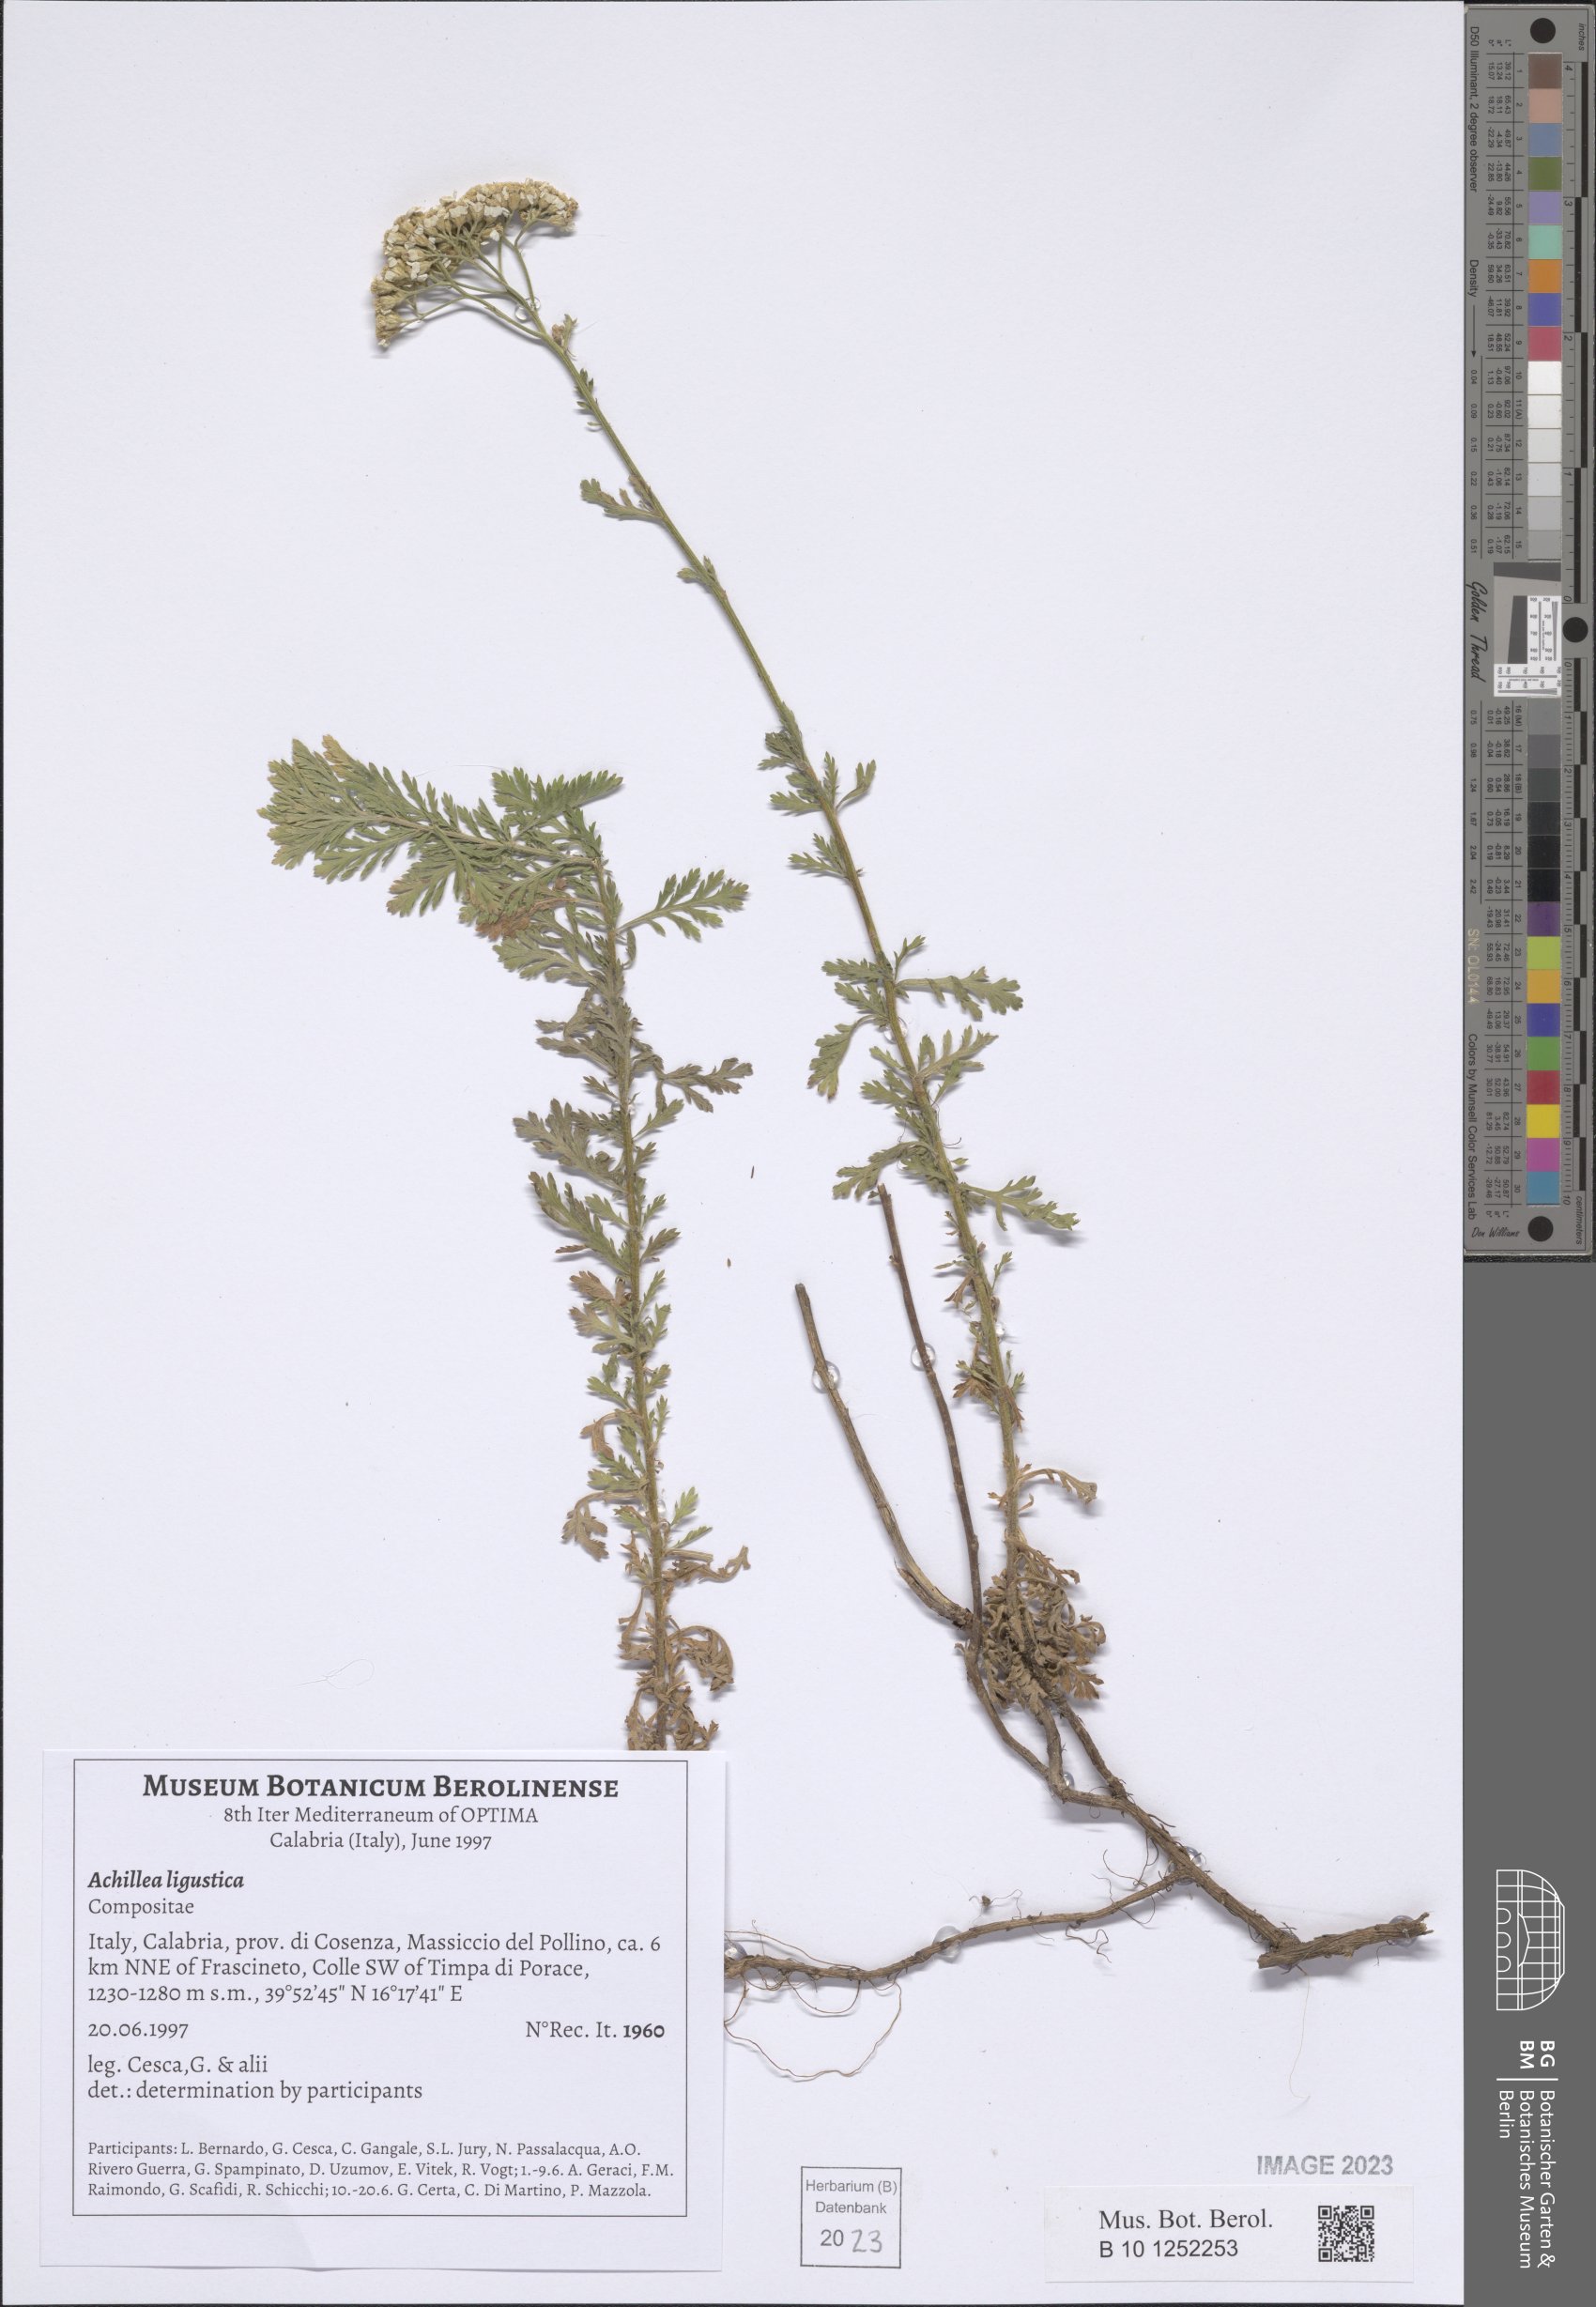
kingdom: Plantae
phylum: Tracheophyta
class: Magnoliopsida
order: Asterales
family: Asteraceae
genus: Achillea
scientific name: Achillea ligustica
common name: Southern yarrow
